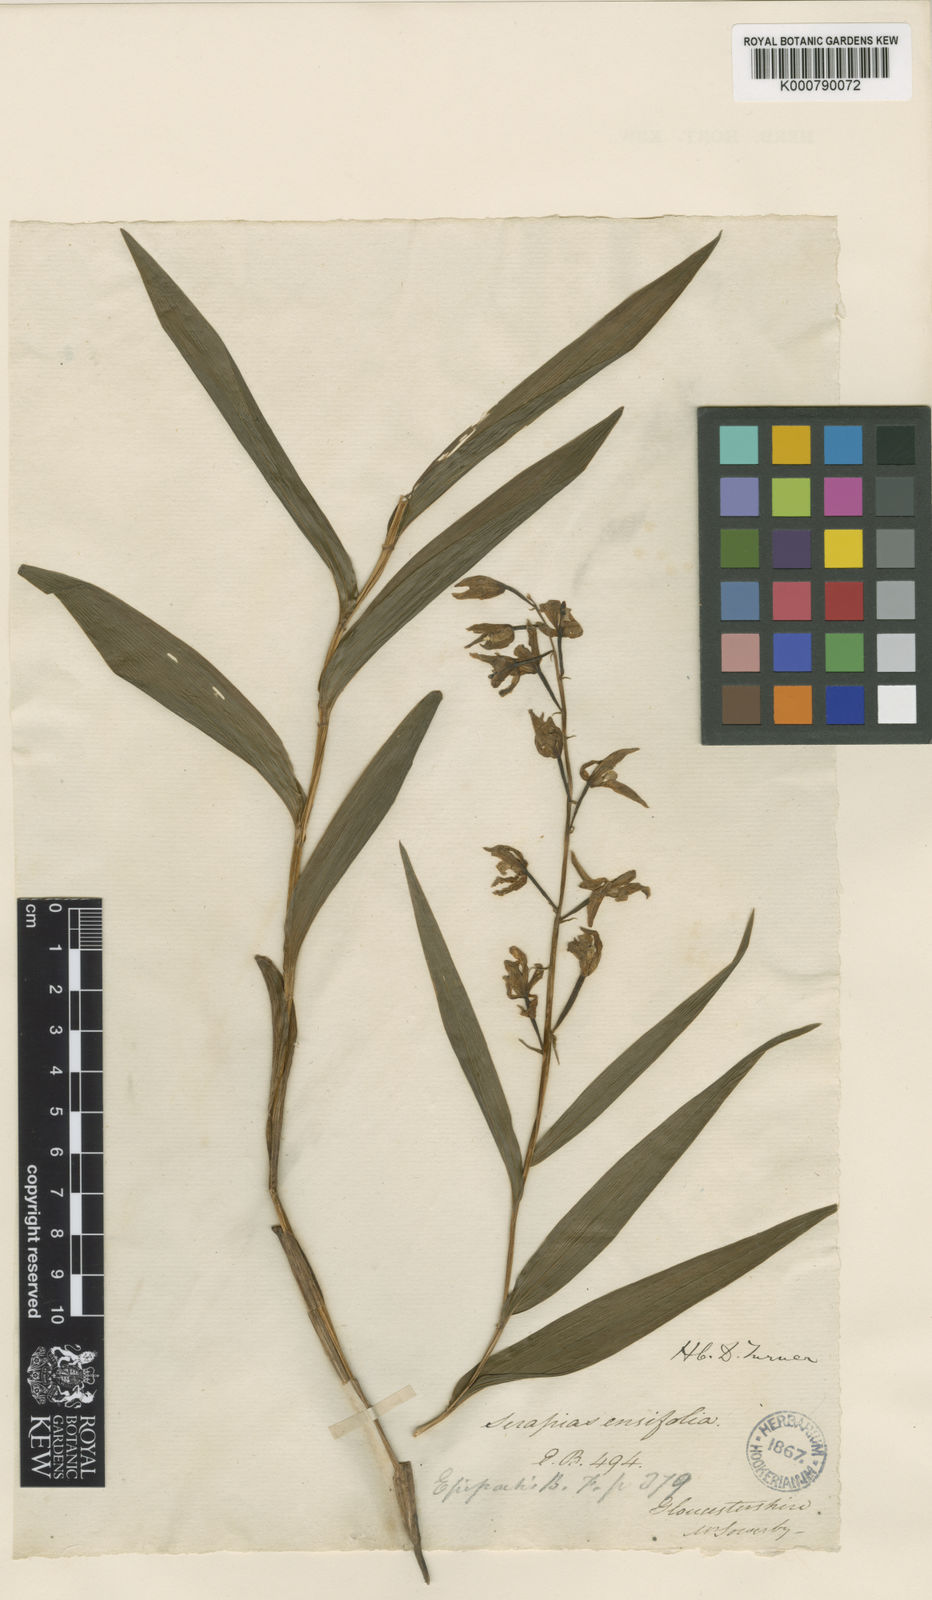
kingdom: Plantae
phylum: Tracheophyta
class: Liliopsida
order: Asparagales
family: Orchidaceae
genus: Cephalanthera
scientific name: Cephalanthera longifolia
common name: Narrow-leaved helleborine
